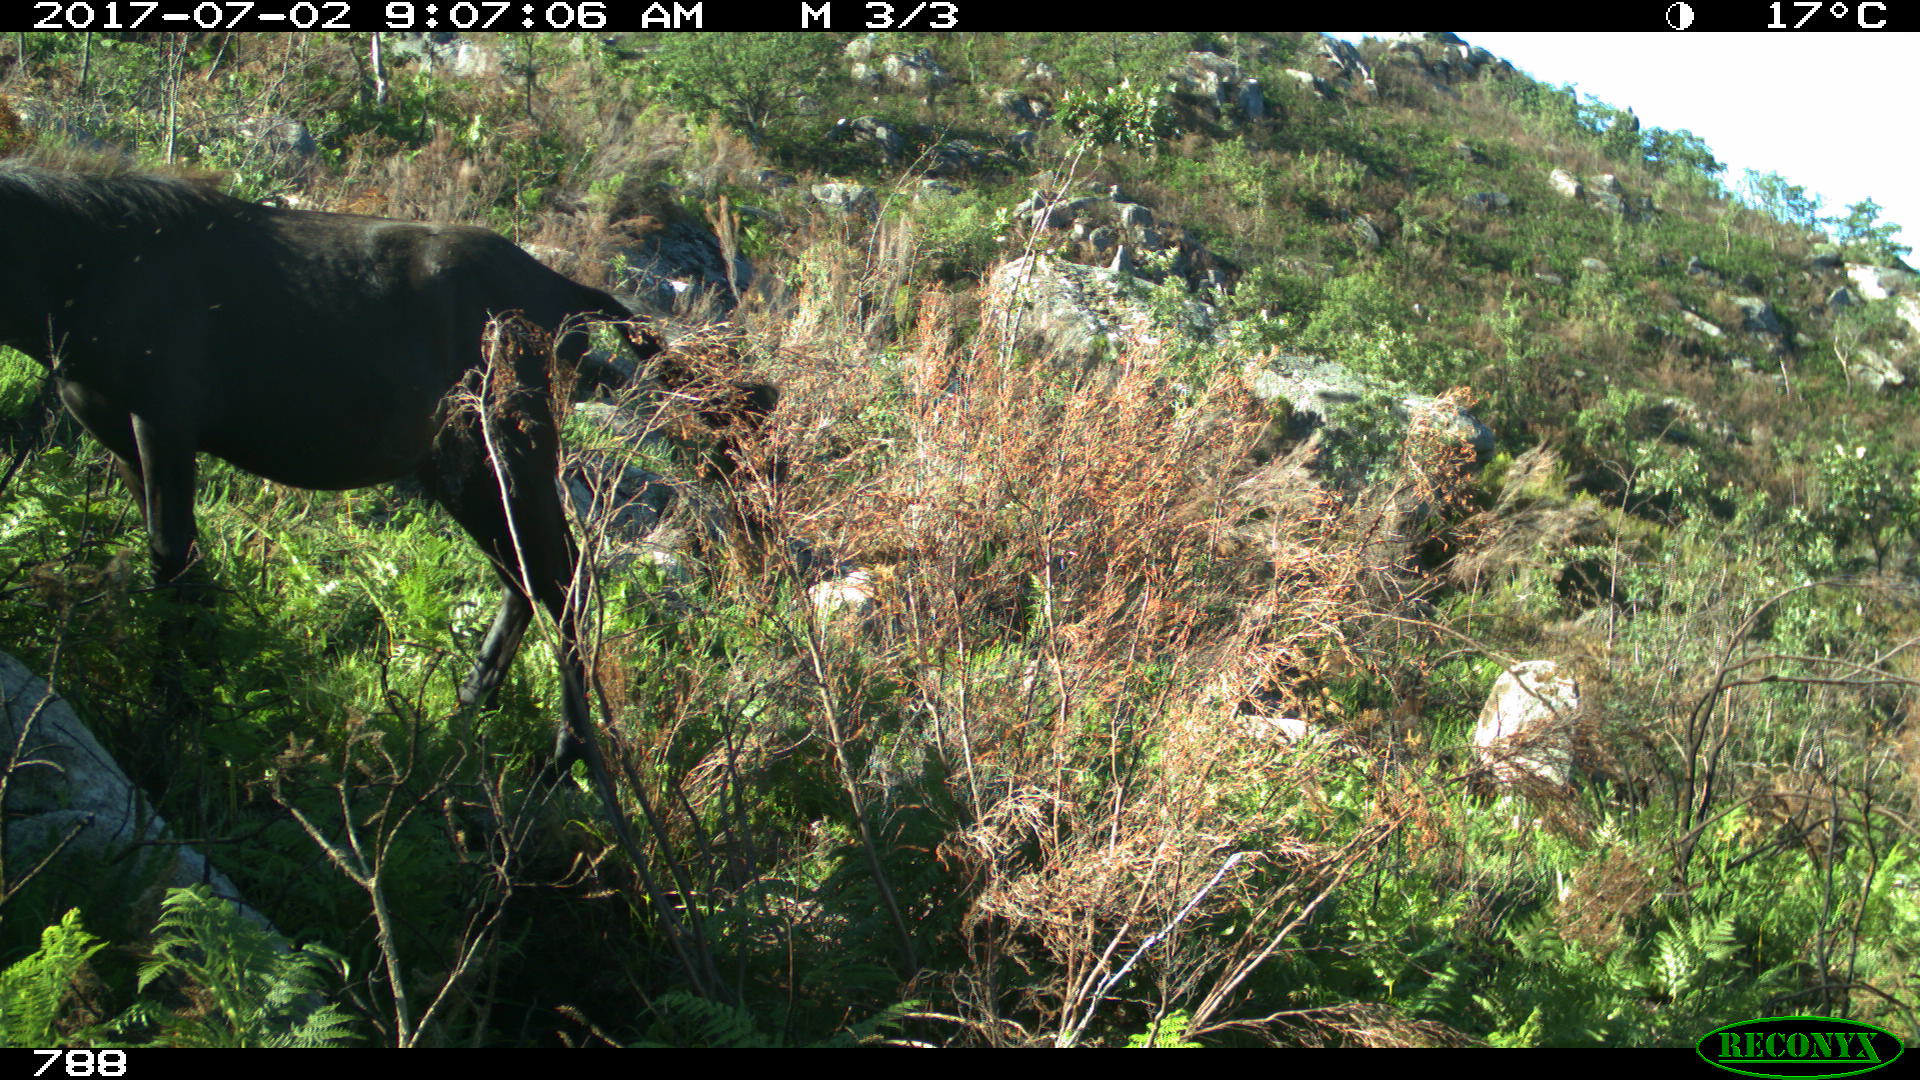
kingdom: Animalia
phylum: Chordata
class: Mammalia
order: Perissodactyla
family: Equidae
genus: Equus
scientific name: Equus caballus
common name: Horse
